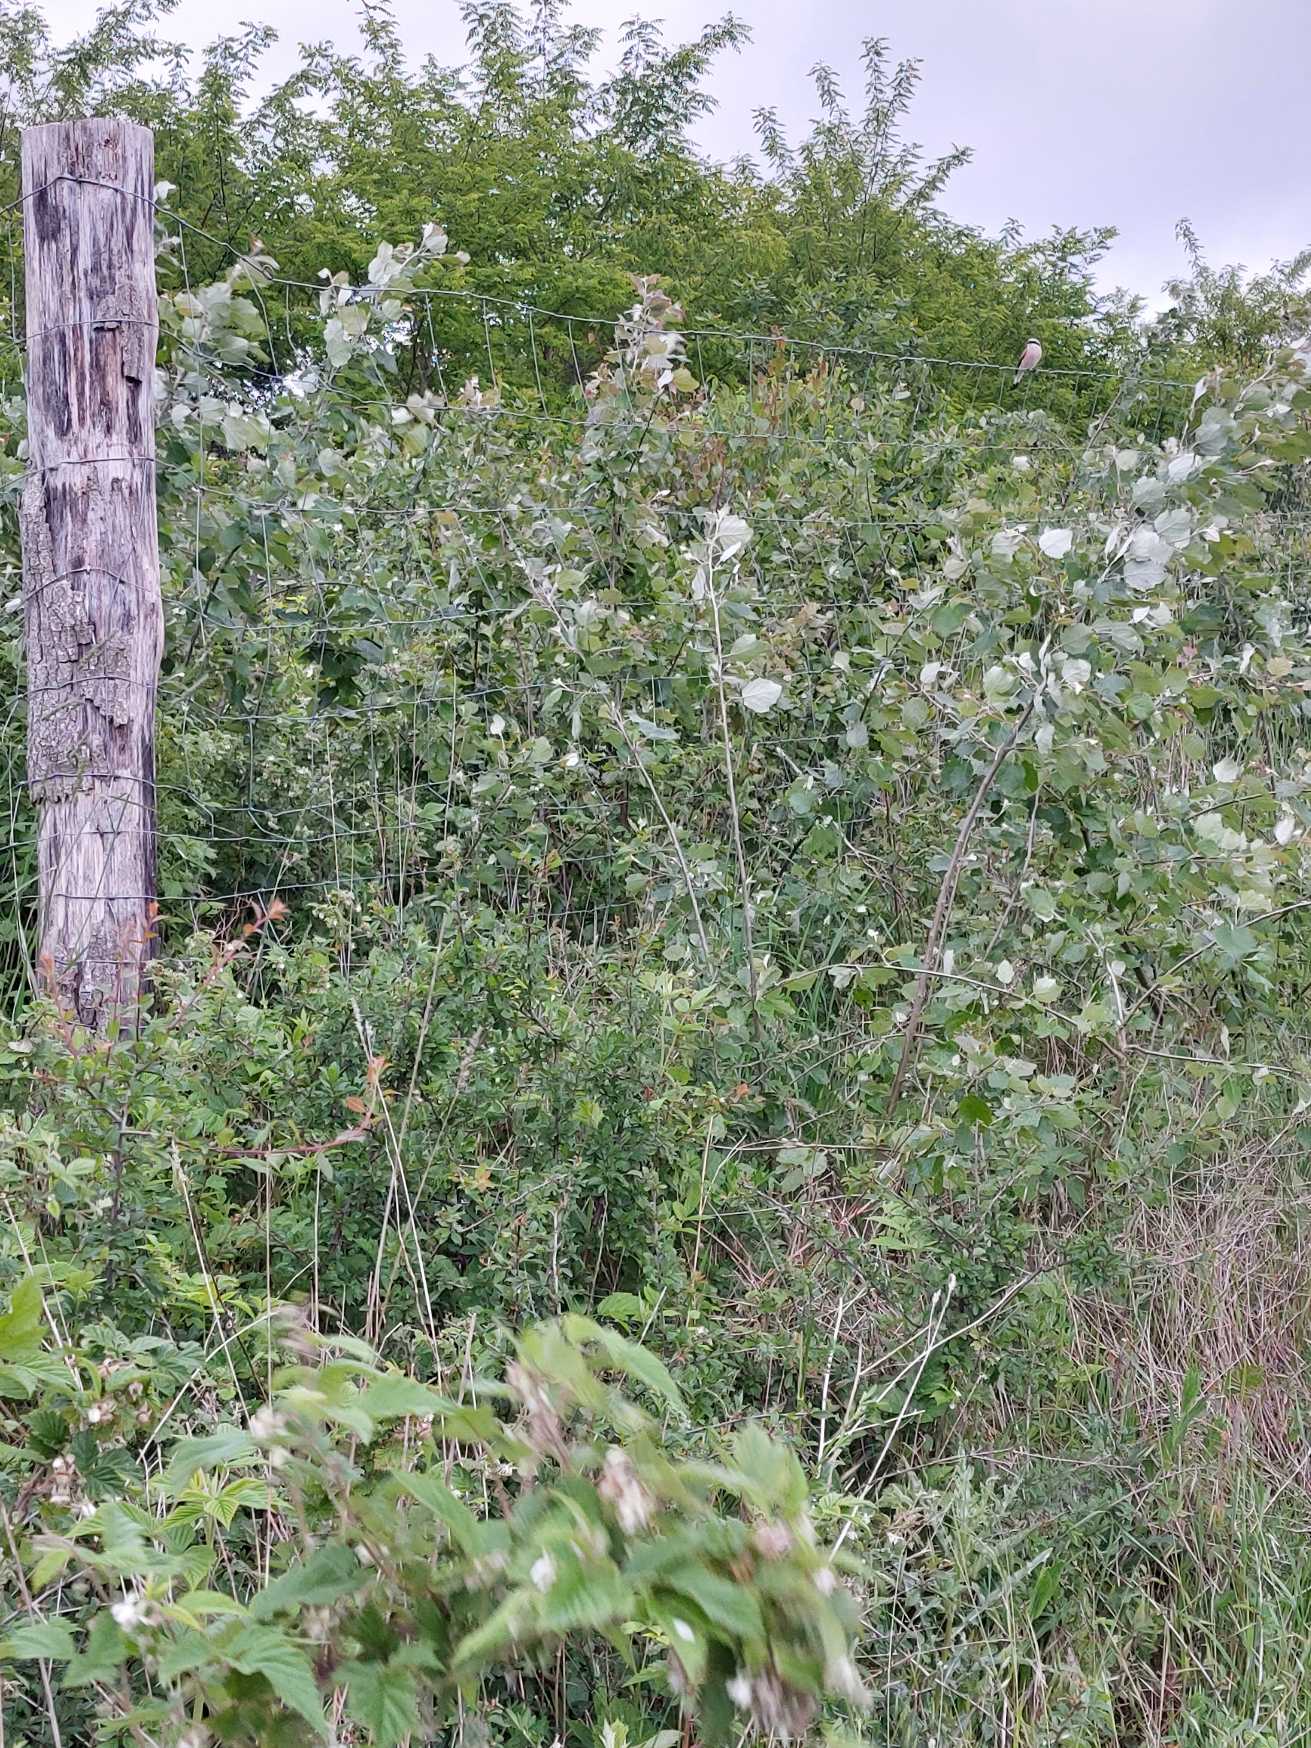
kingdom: Animalia
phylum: Chordata
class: Aves
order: Passeriformes
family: Laniidae
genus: Lanius
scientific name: Lanius collurio
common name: Rødrygget tornskade
